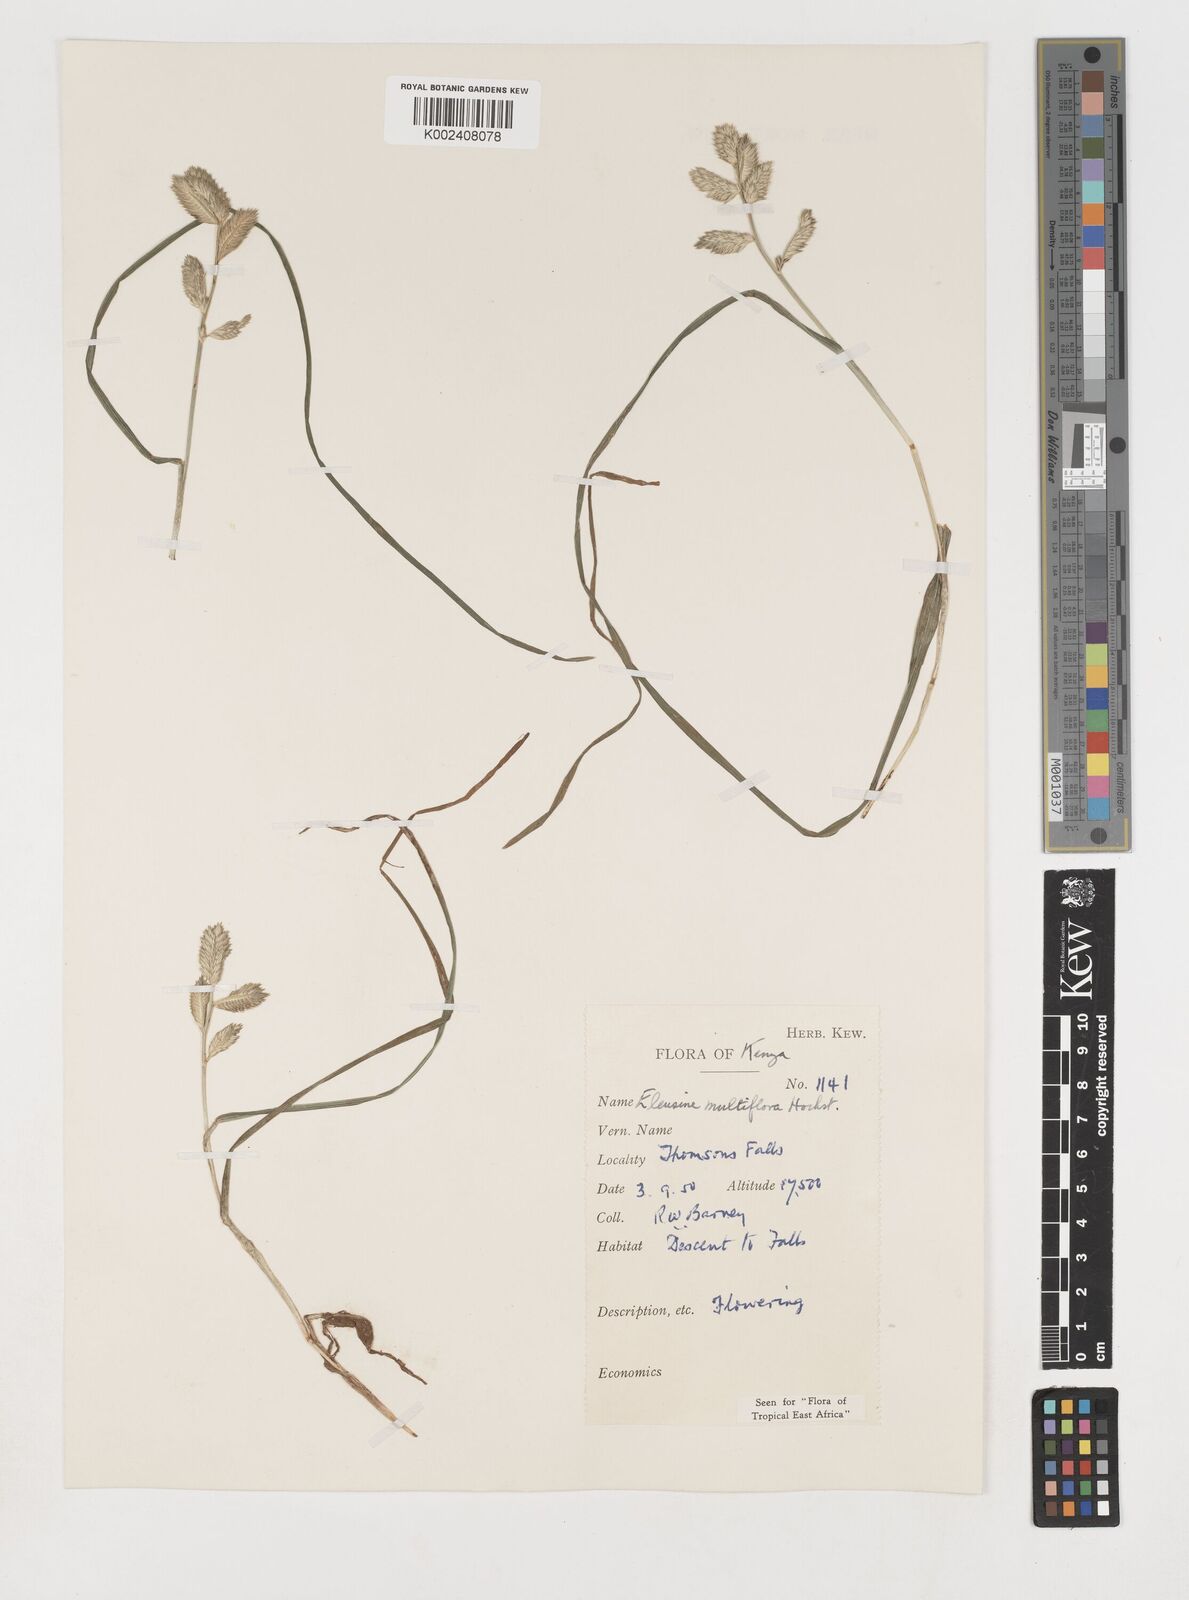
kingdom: Plantae
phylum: Tracheophyta
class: Liliopsida
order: Poales
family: Poaceae
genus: Eleusine
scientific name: Eleusine multiflora
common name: Fat-spiked yard-grass
